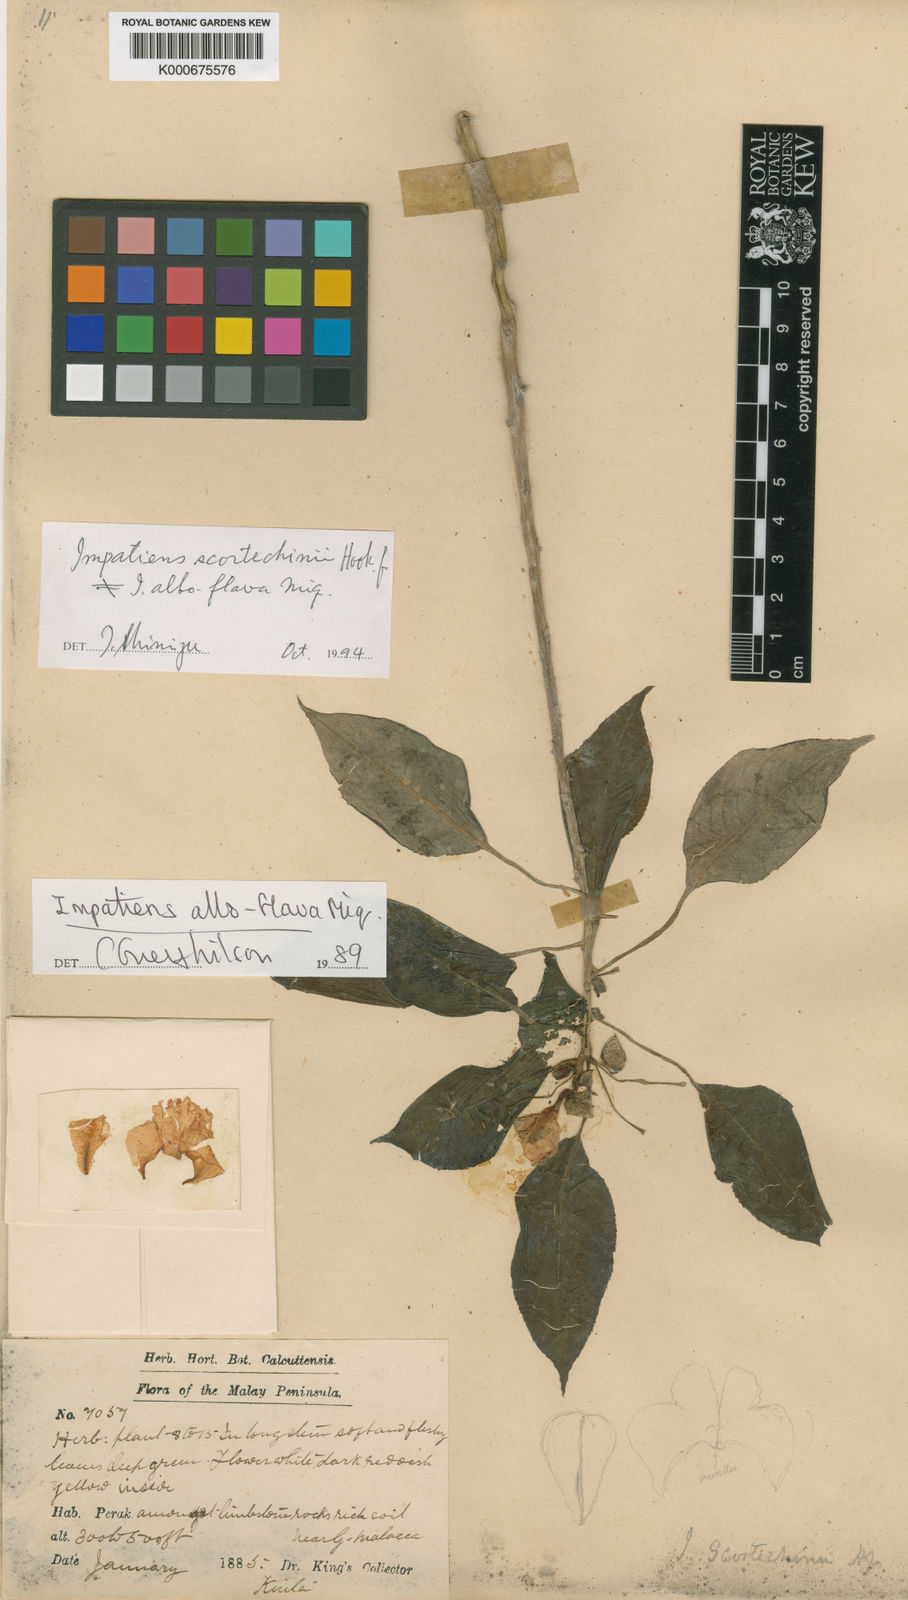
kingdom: Plantae
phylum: Tracheophyta
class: Magnoliopsida
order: Ericales
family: Balsaminaceae
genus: Impatiens
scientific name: Impatiens scortechinii
